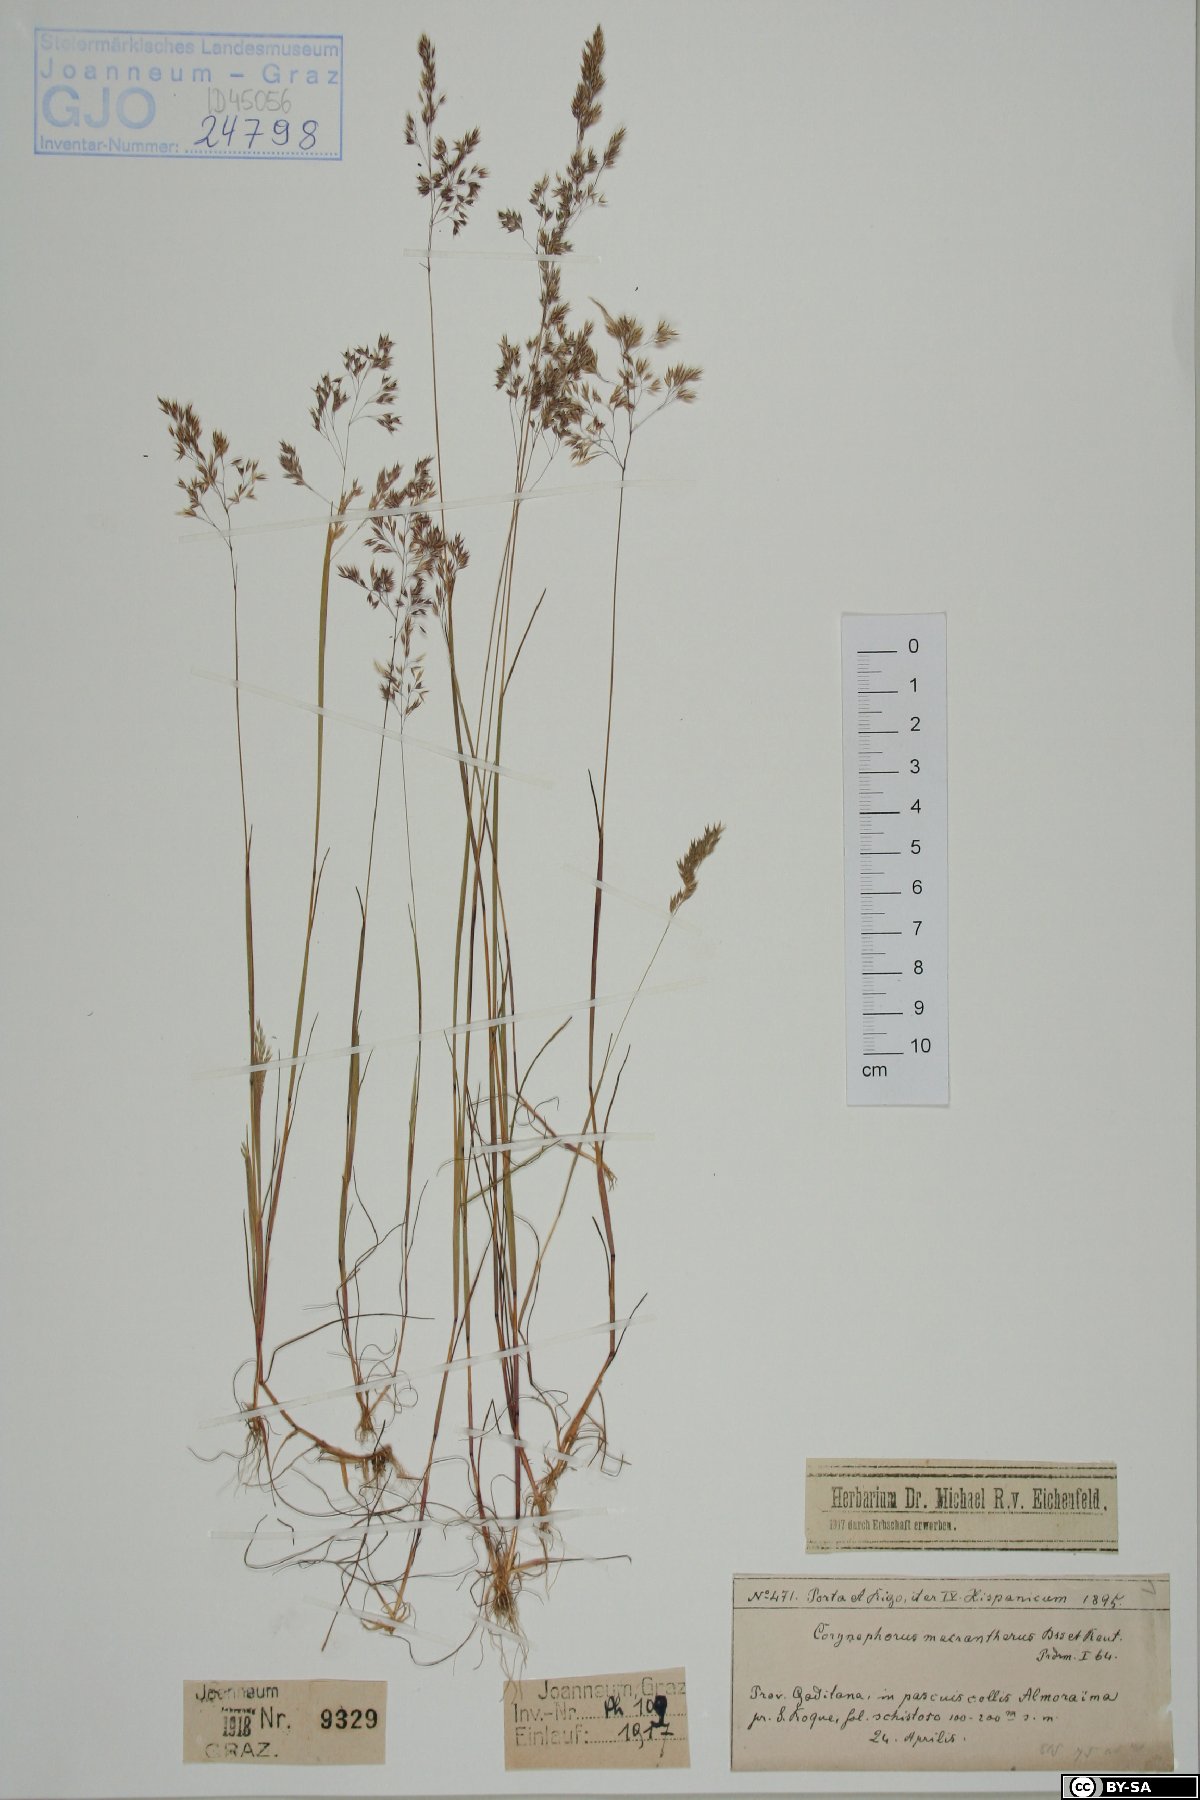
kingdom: Plantae
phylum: Tracheophyta
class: Liliopsida
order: Poales
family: Poaceae
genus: Corynephorus
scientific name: Corynephorus macrantherus
